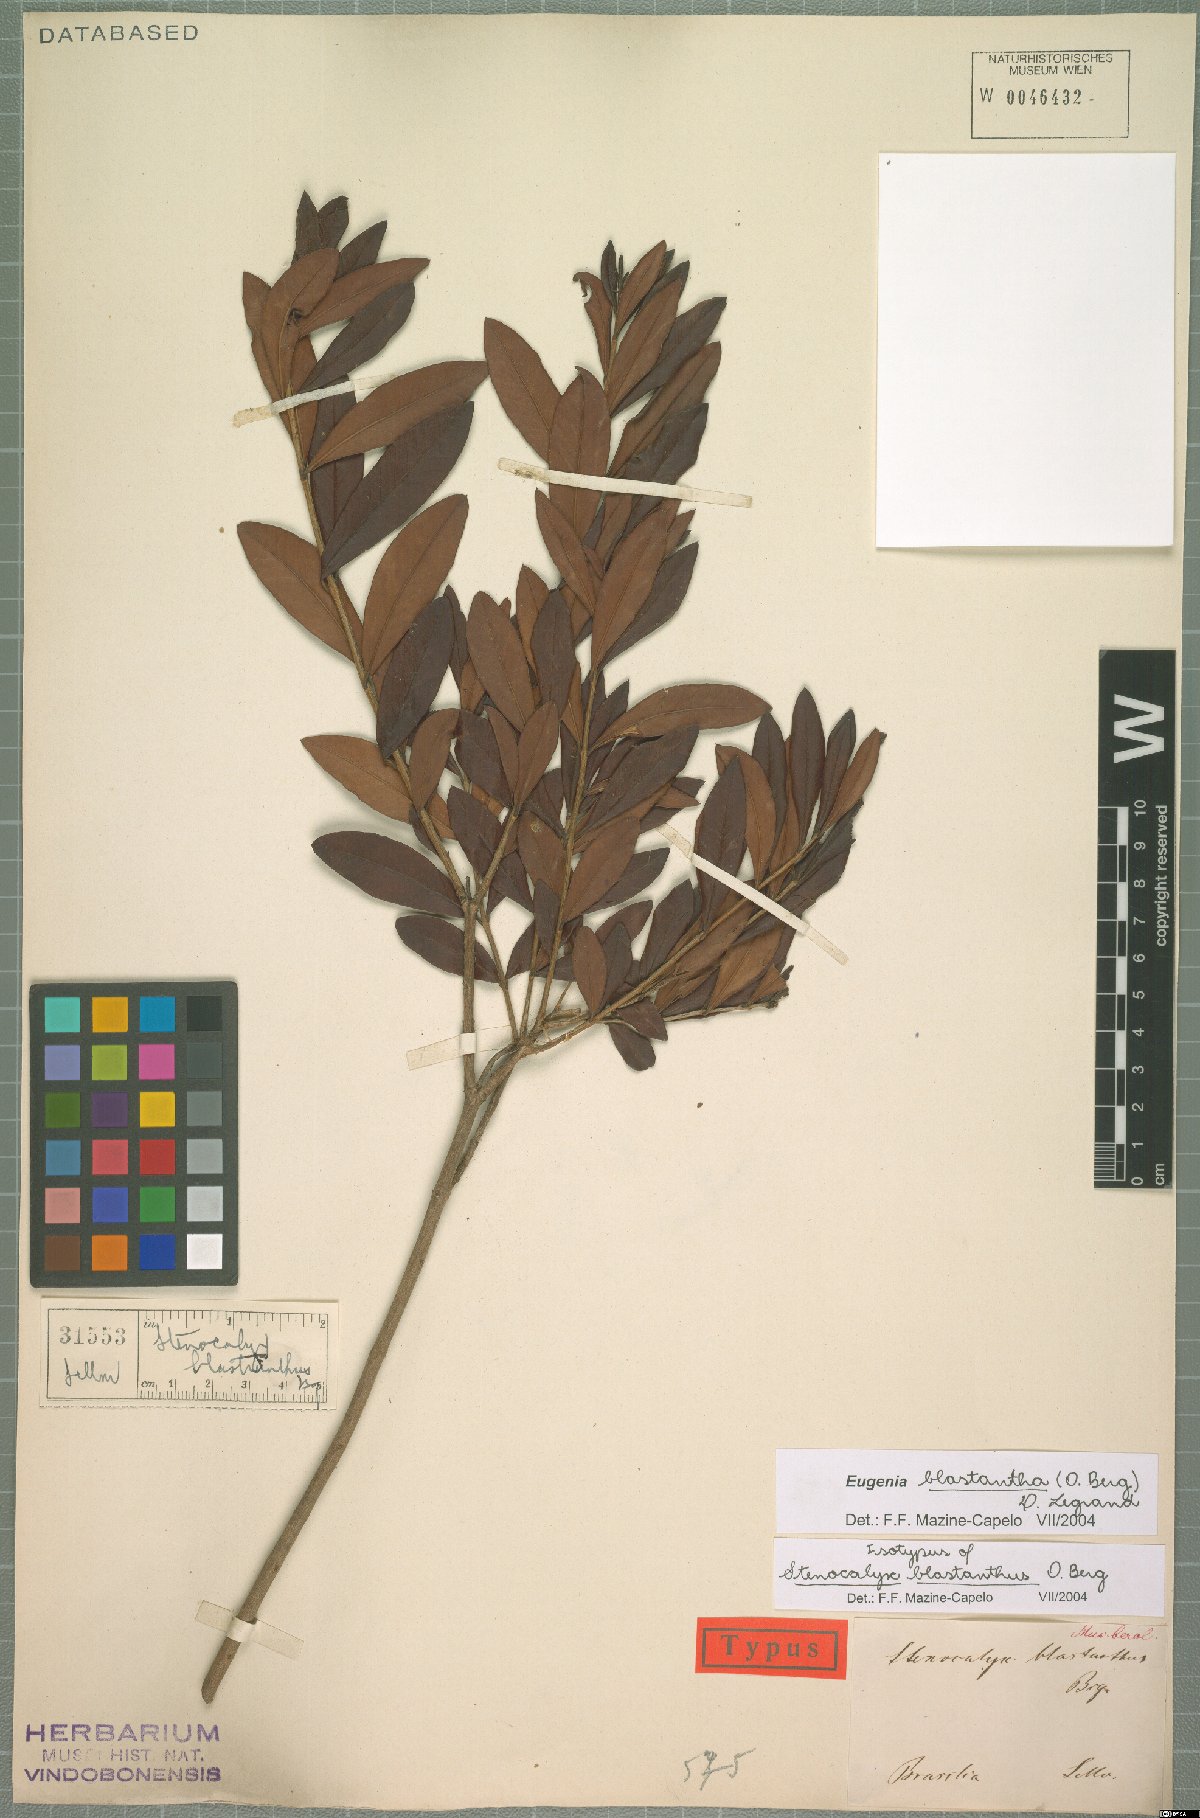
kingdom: Plantae
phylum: Tracheophyta
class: Magnoliopsida
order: Myrtales
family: Myrtaceae
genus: Eugenia
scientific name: Eugenia blastantha
